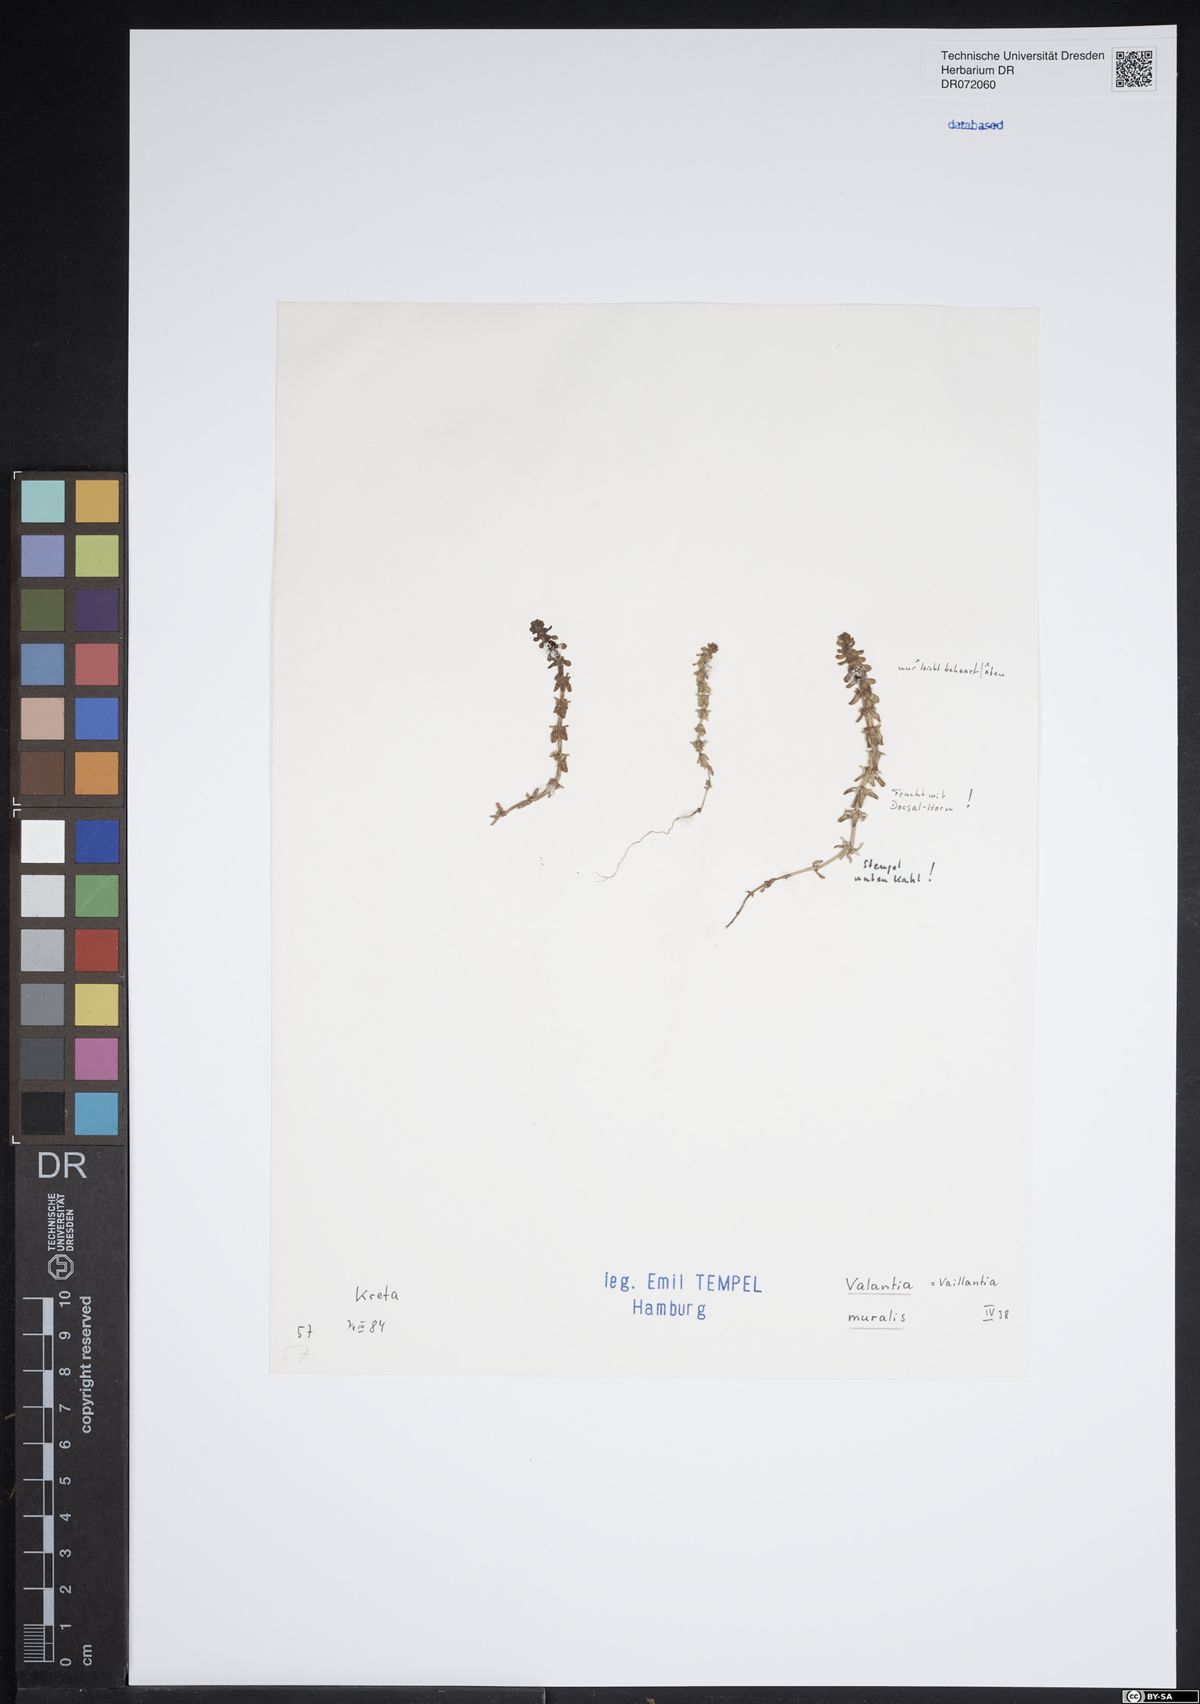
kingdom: Plantae
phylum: Tracheophyta
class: Magnoliopsida
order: Gentianales
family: Rubiaceae
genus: Valantia
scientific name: Valantia muralis
